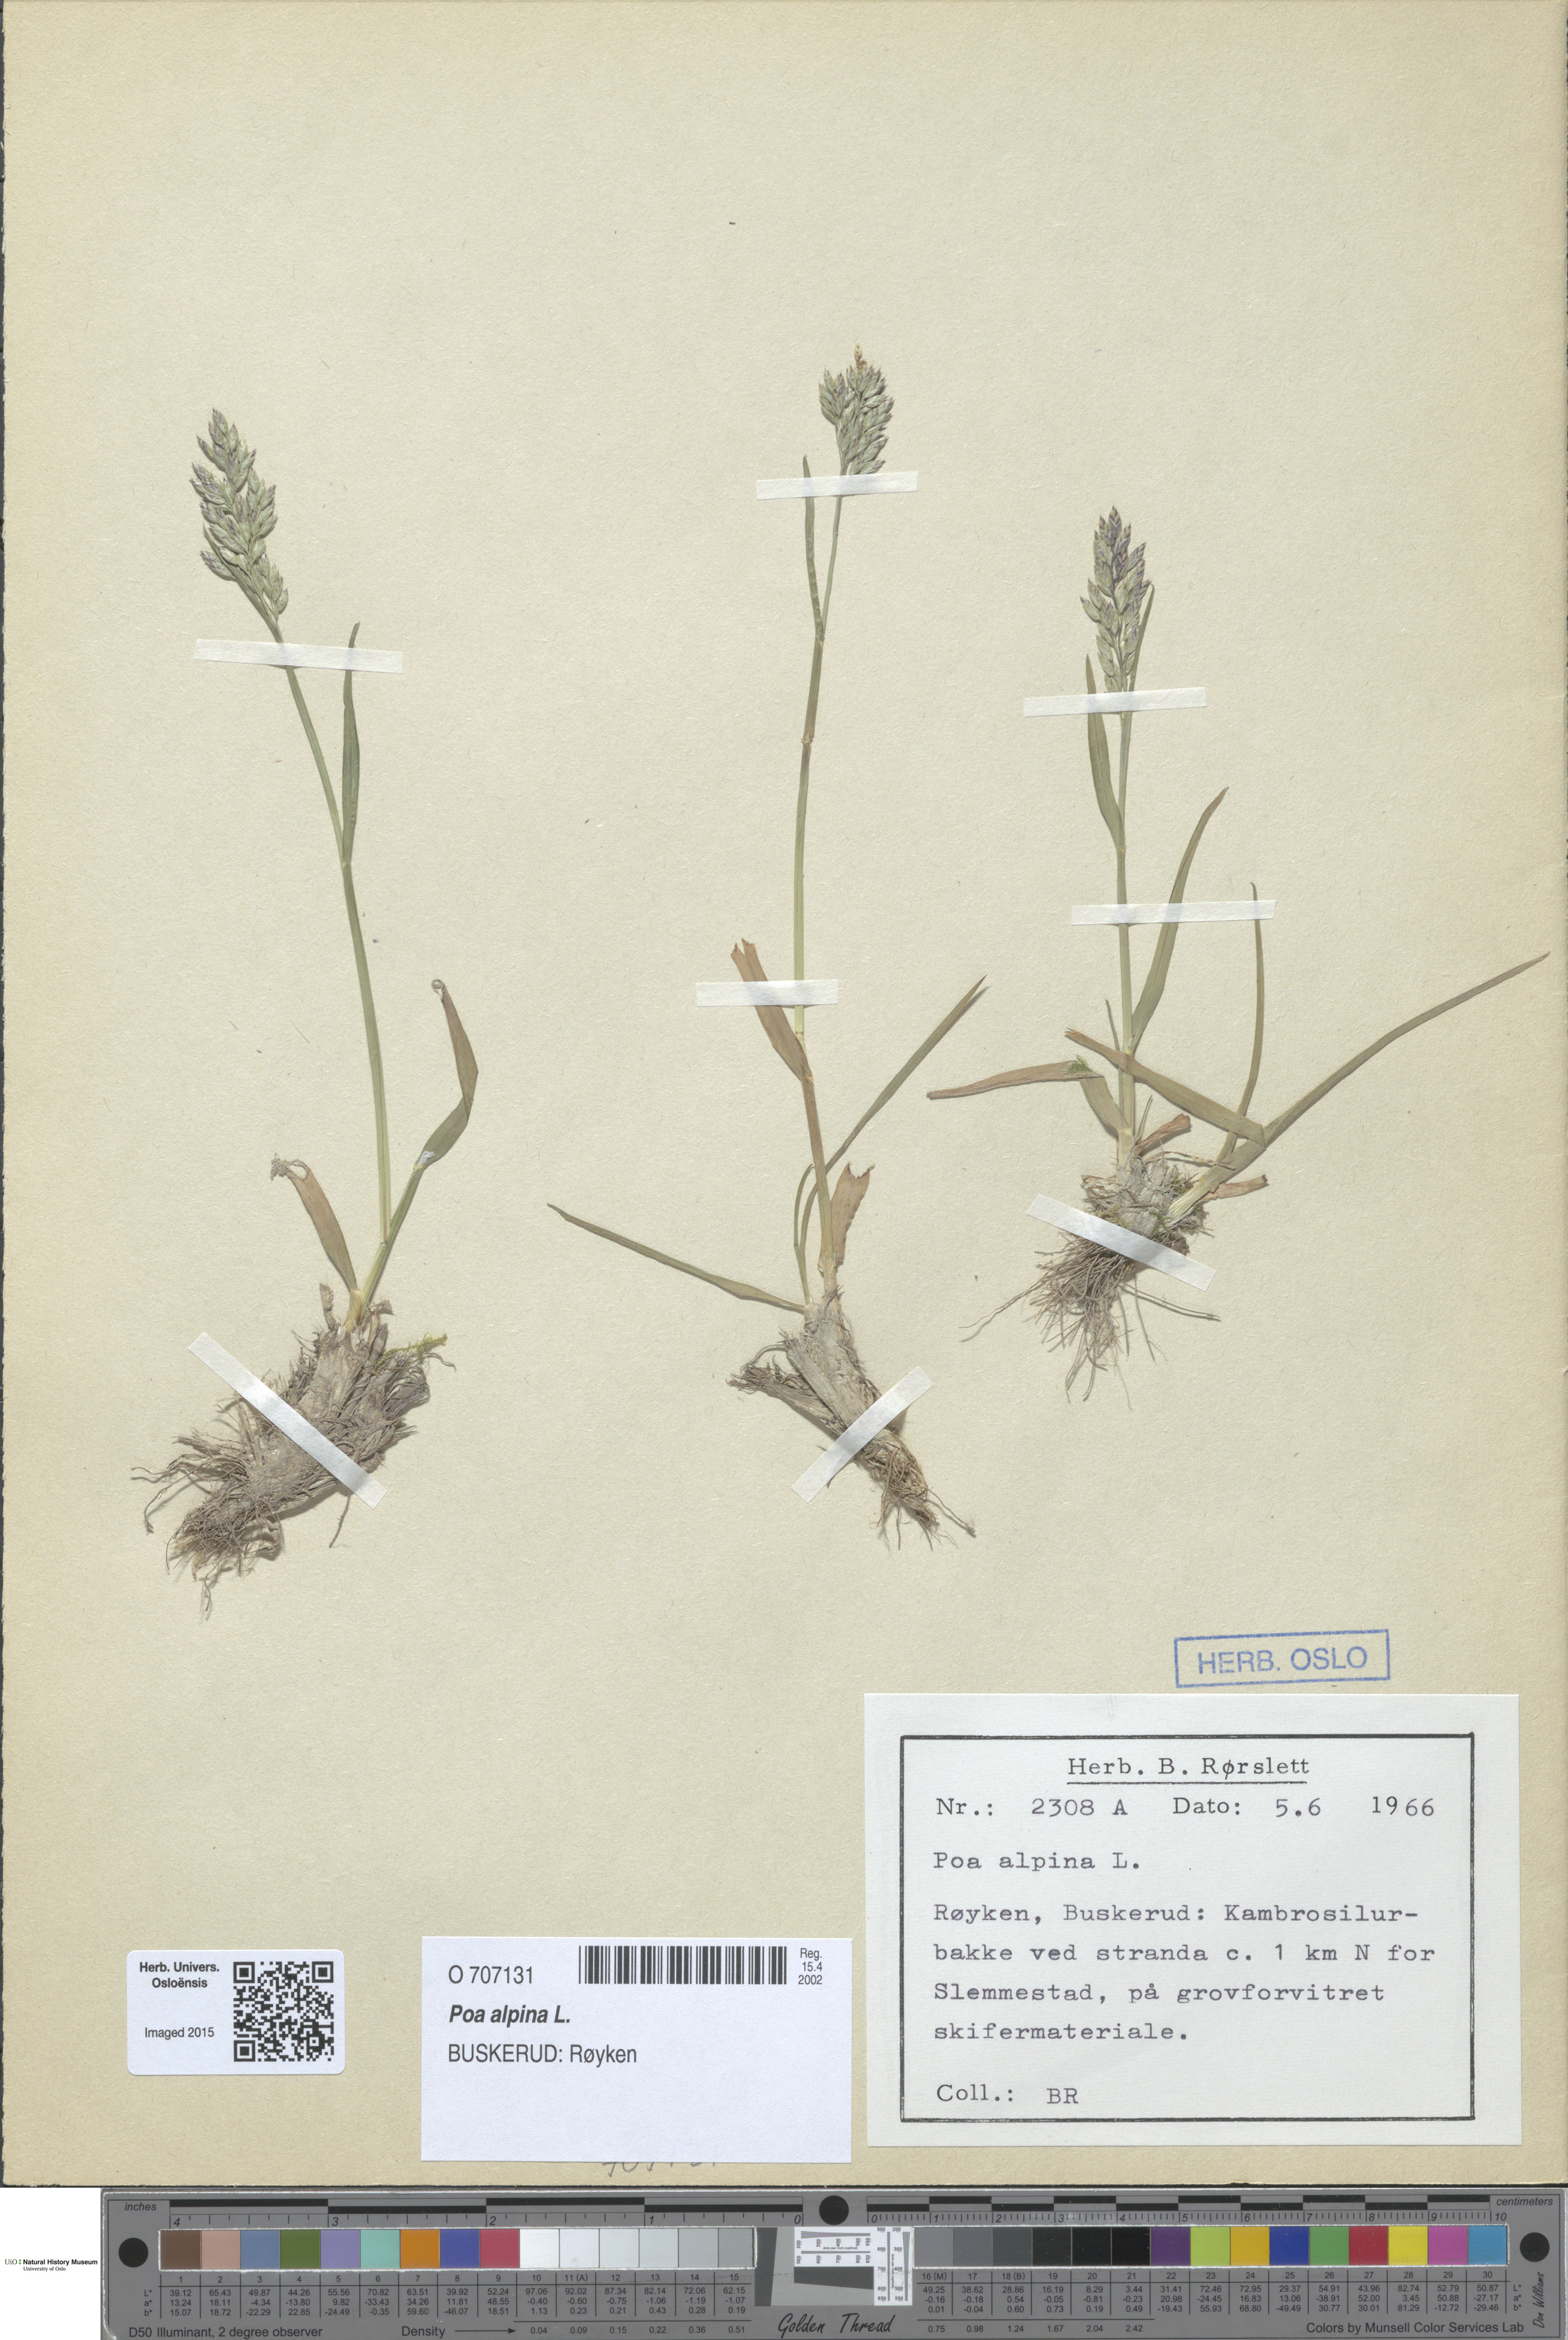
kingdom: Plantae
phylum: Tracheophyta
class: Liliopsida
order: Poales
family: Poaceae
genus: Poa
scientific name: Poa alpina
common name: Alpine bluegrass
